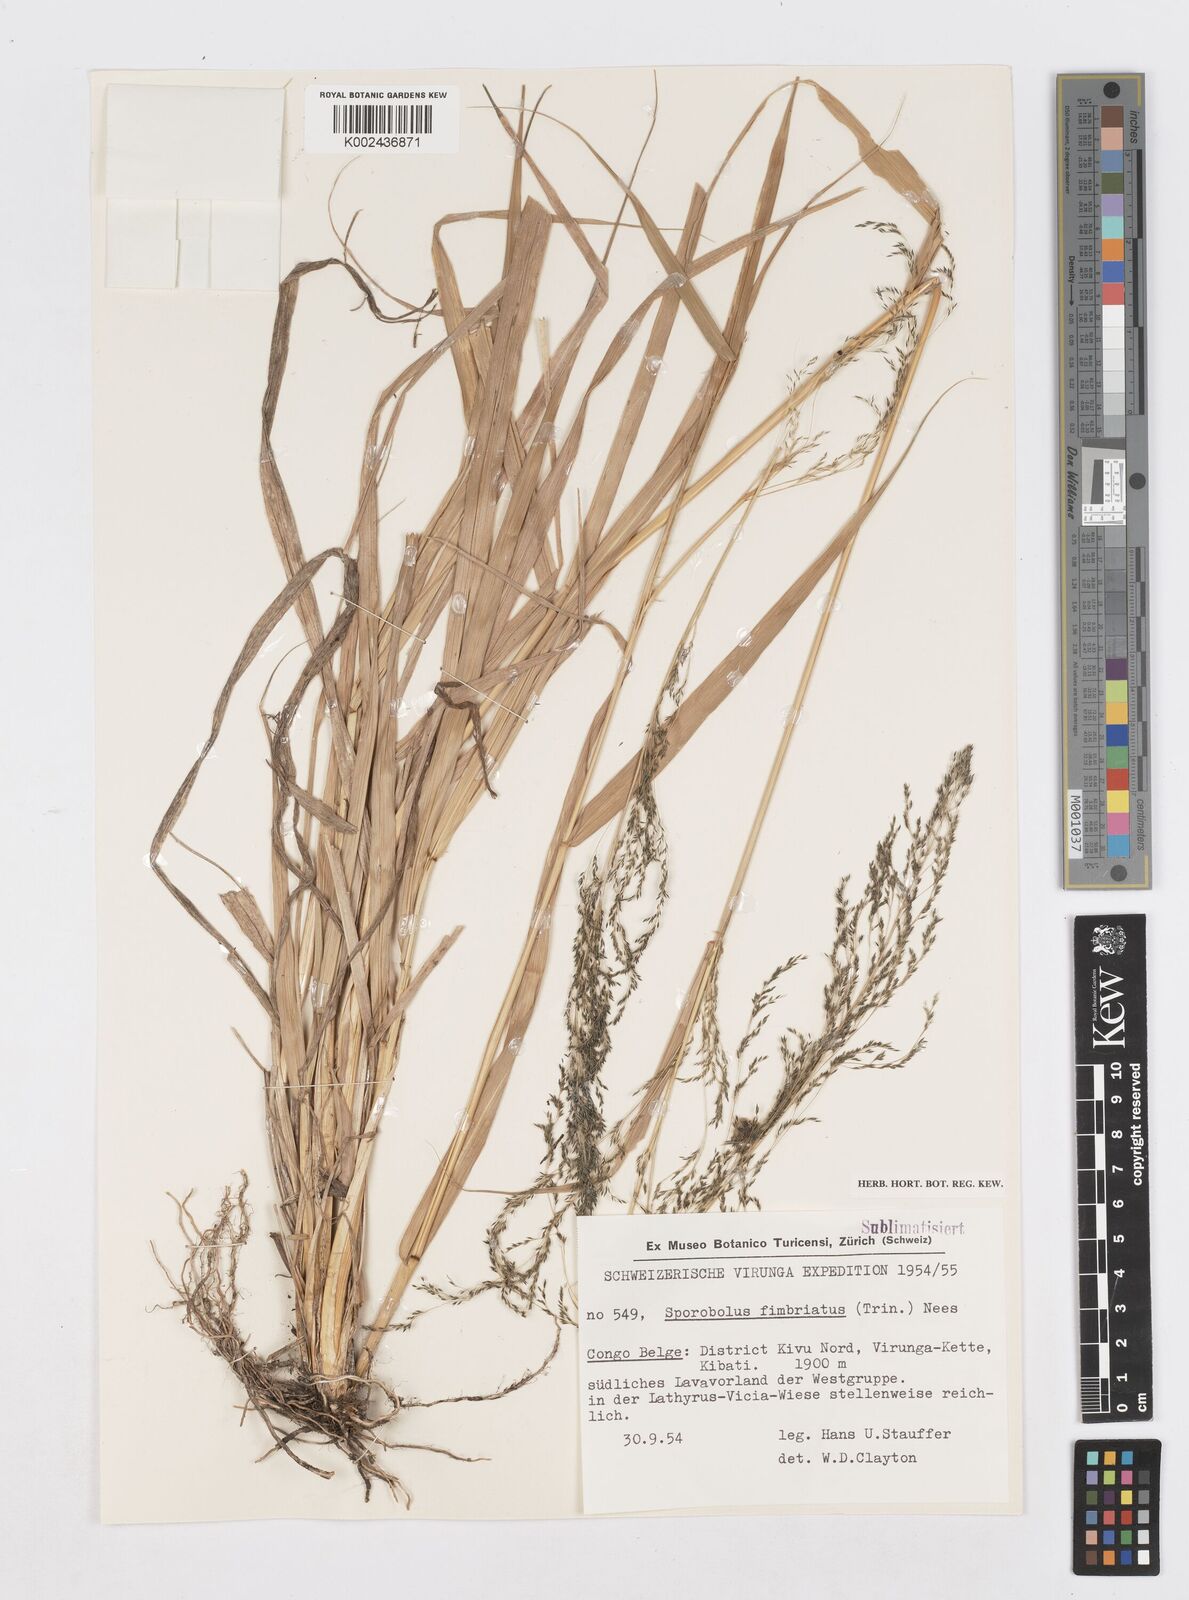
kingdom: Plantae
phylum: Tracheophyta
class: Liliopsida
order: Poales
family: Poaceae
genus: Sporobolus
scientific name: Sporobolus fimbriatus
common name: Fringed dropseed
